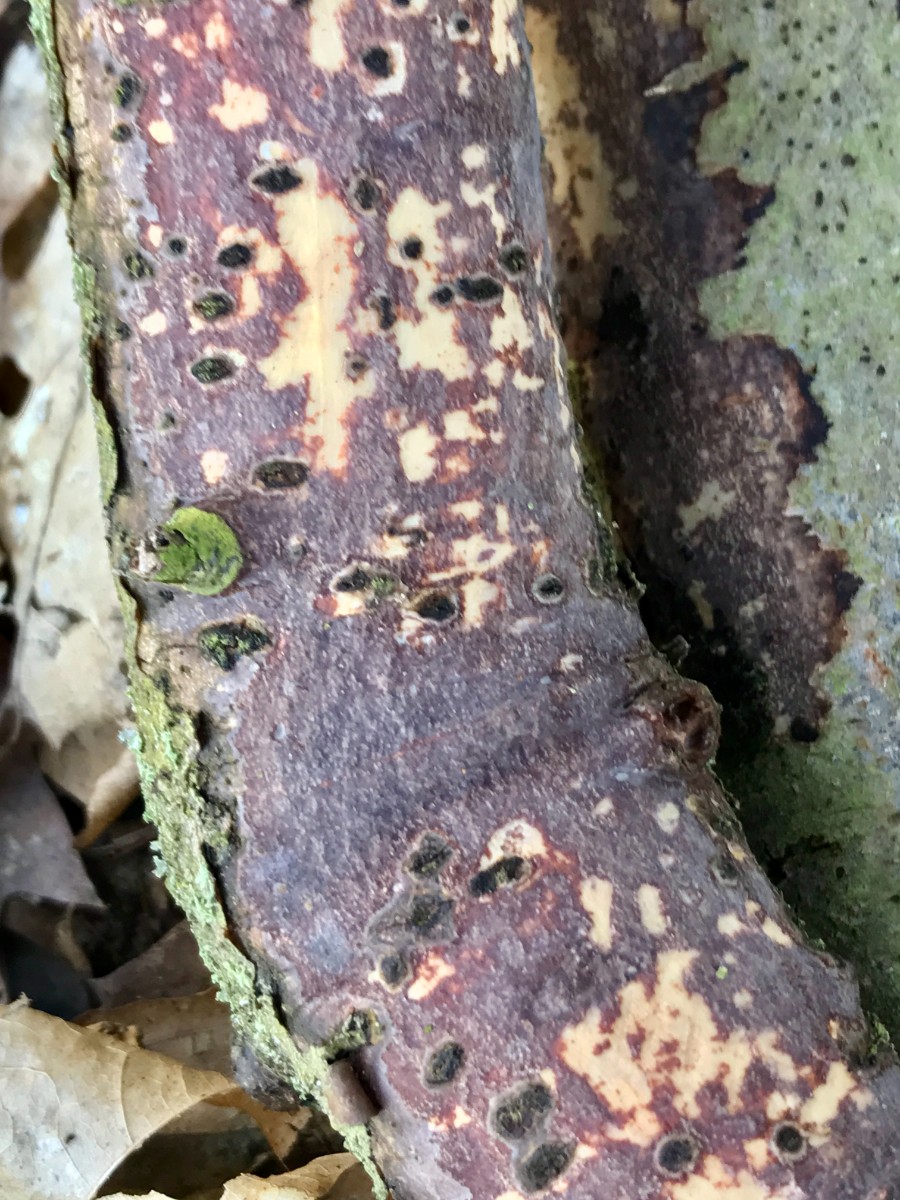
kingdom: Fungi
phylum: Basidiomycota
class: Agaricomycetes
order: Corticiales
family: Vuilleminiaceae
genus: Vuilleminia
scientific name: Vuilleminia comedens
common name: almindelig barksprænger
